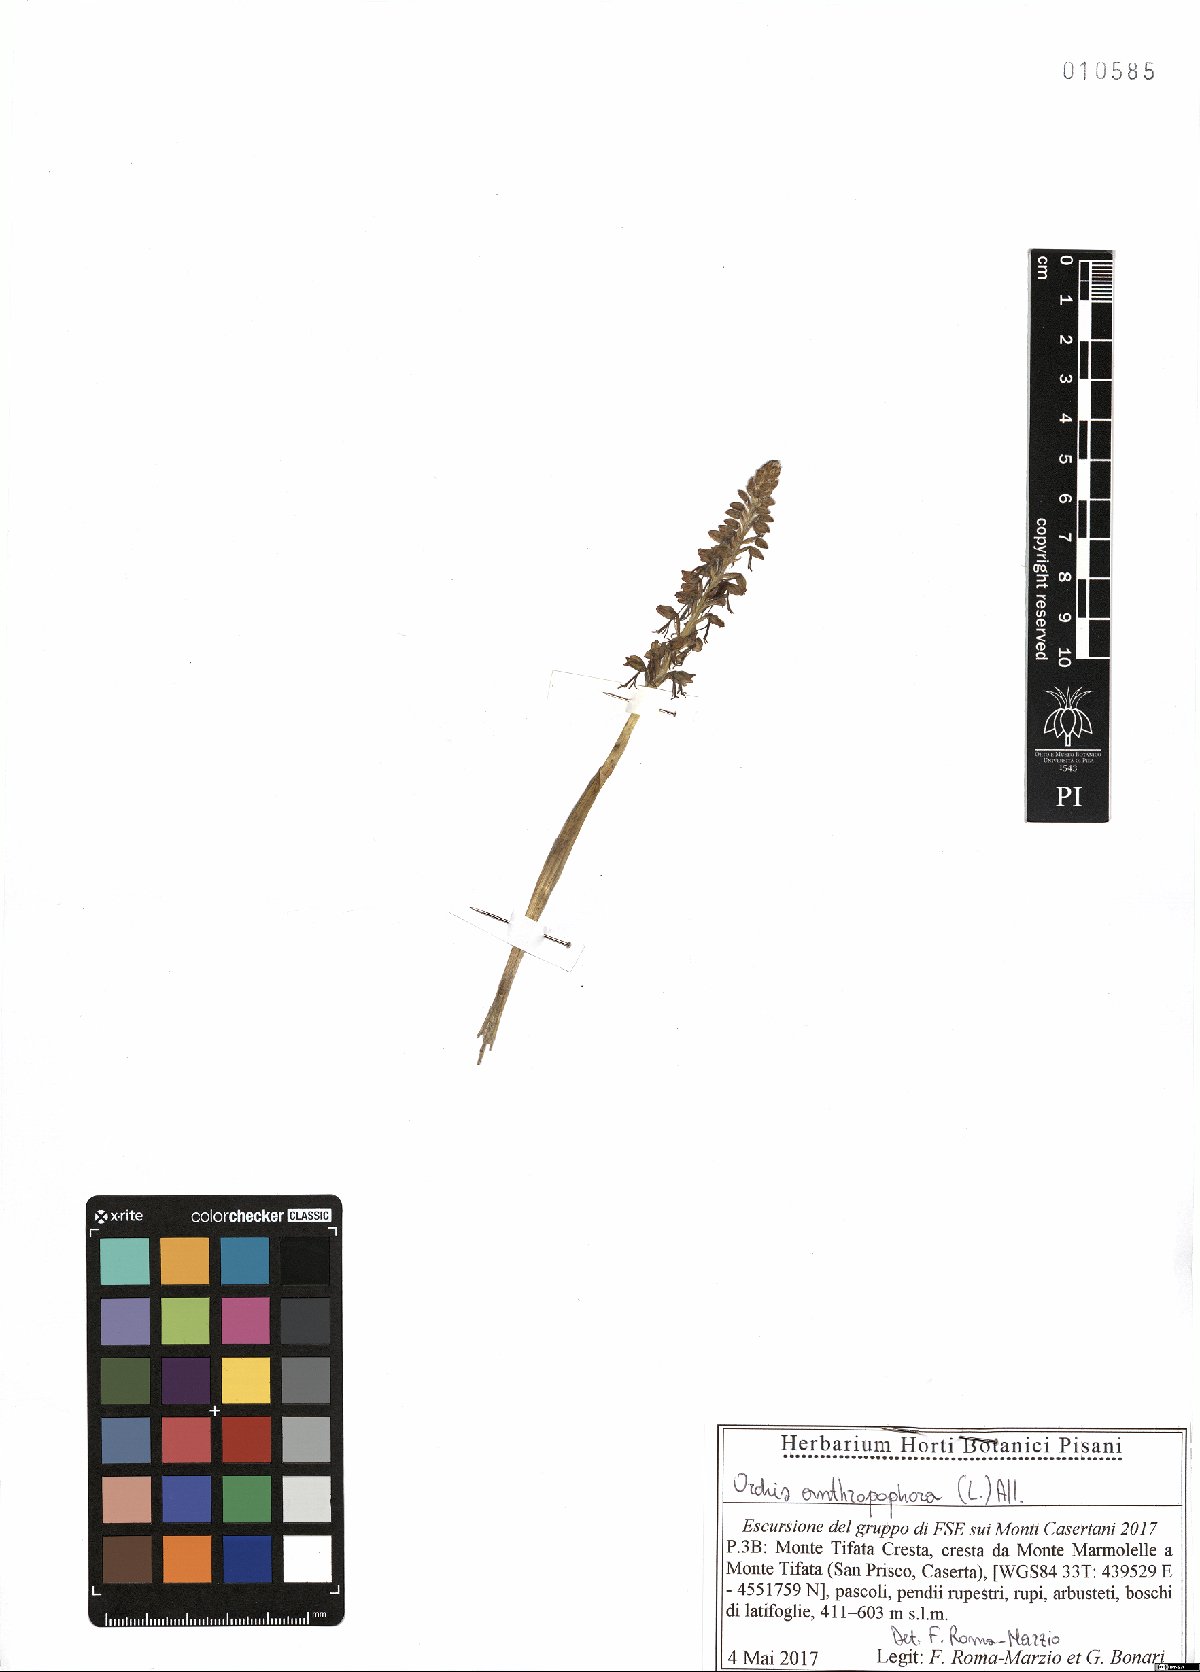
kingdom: Plantae
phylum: Tracheophyta
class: Liliopsida
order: Asparagales
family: Orchidaceae
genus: Orchis
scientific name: Orchis anthropophora
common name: Man orchid
